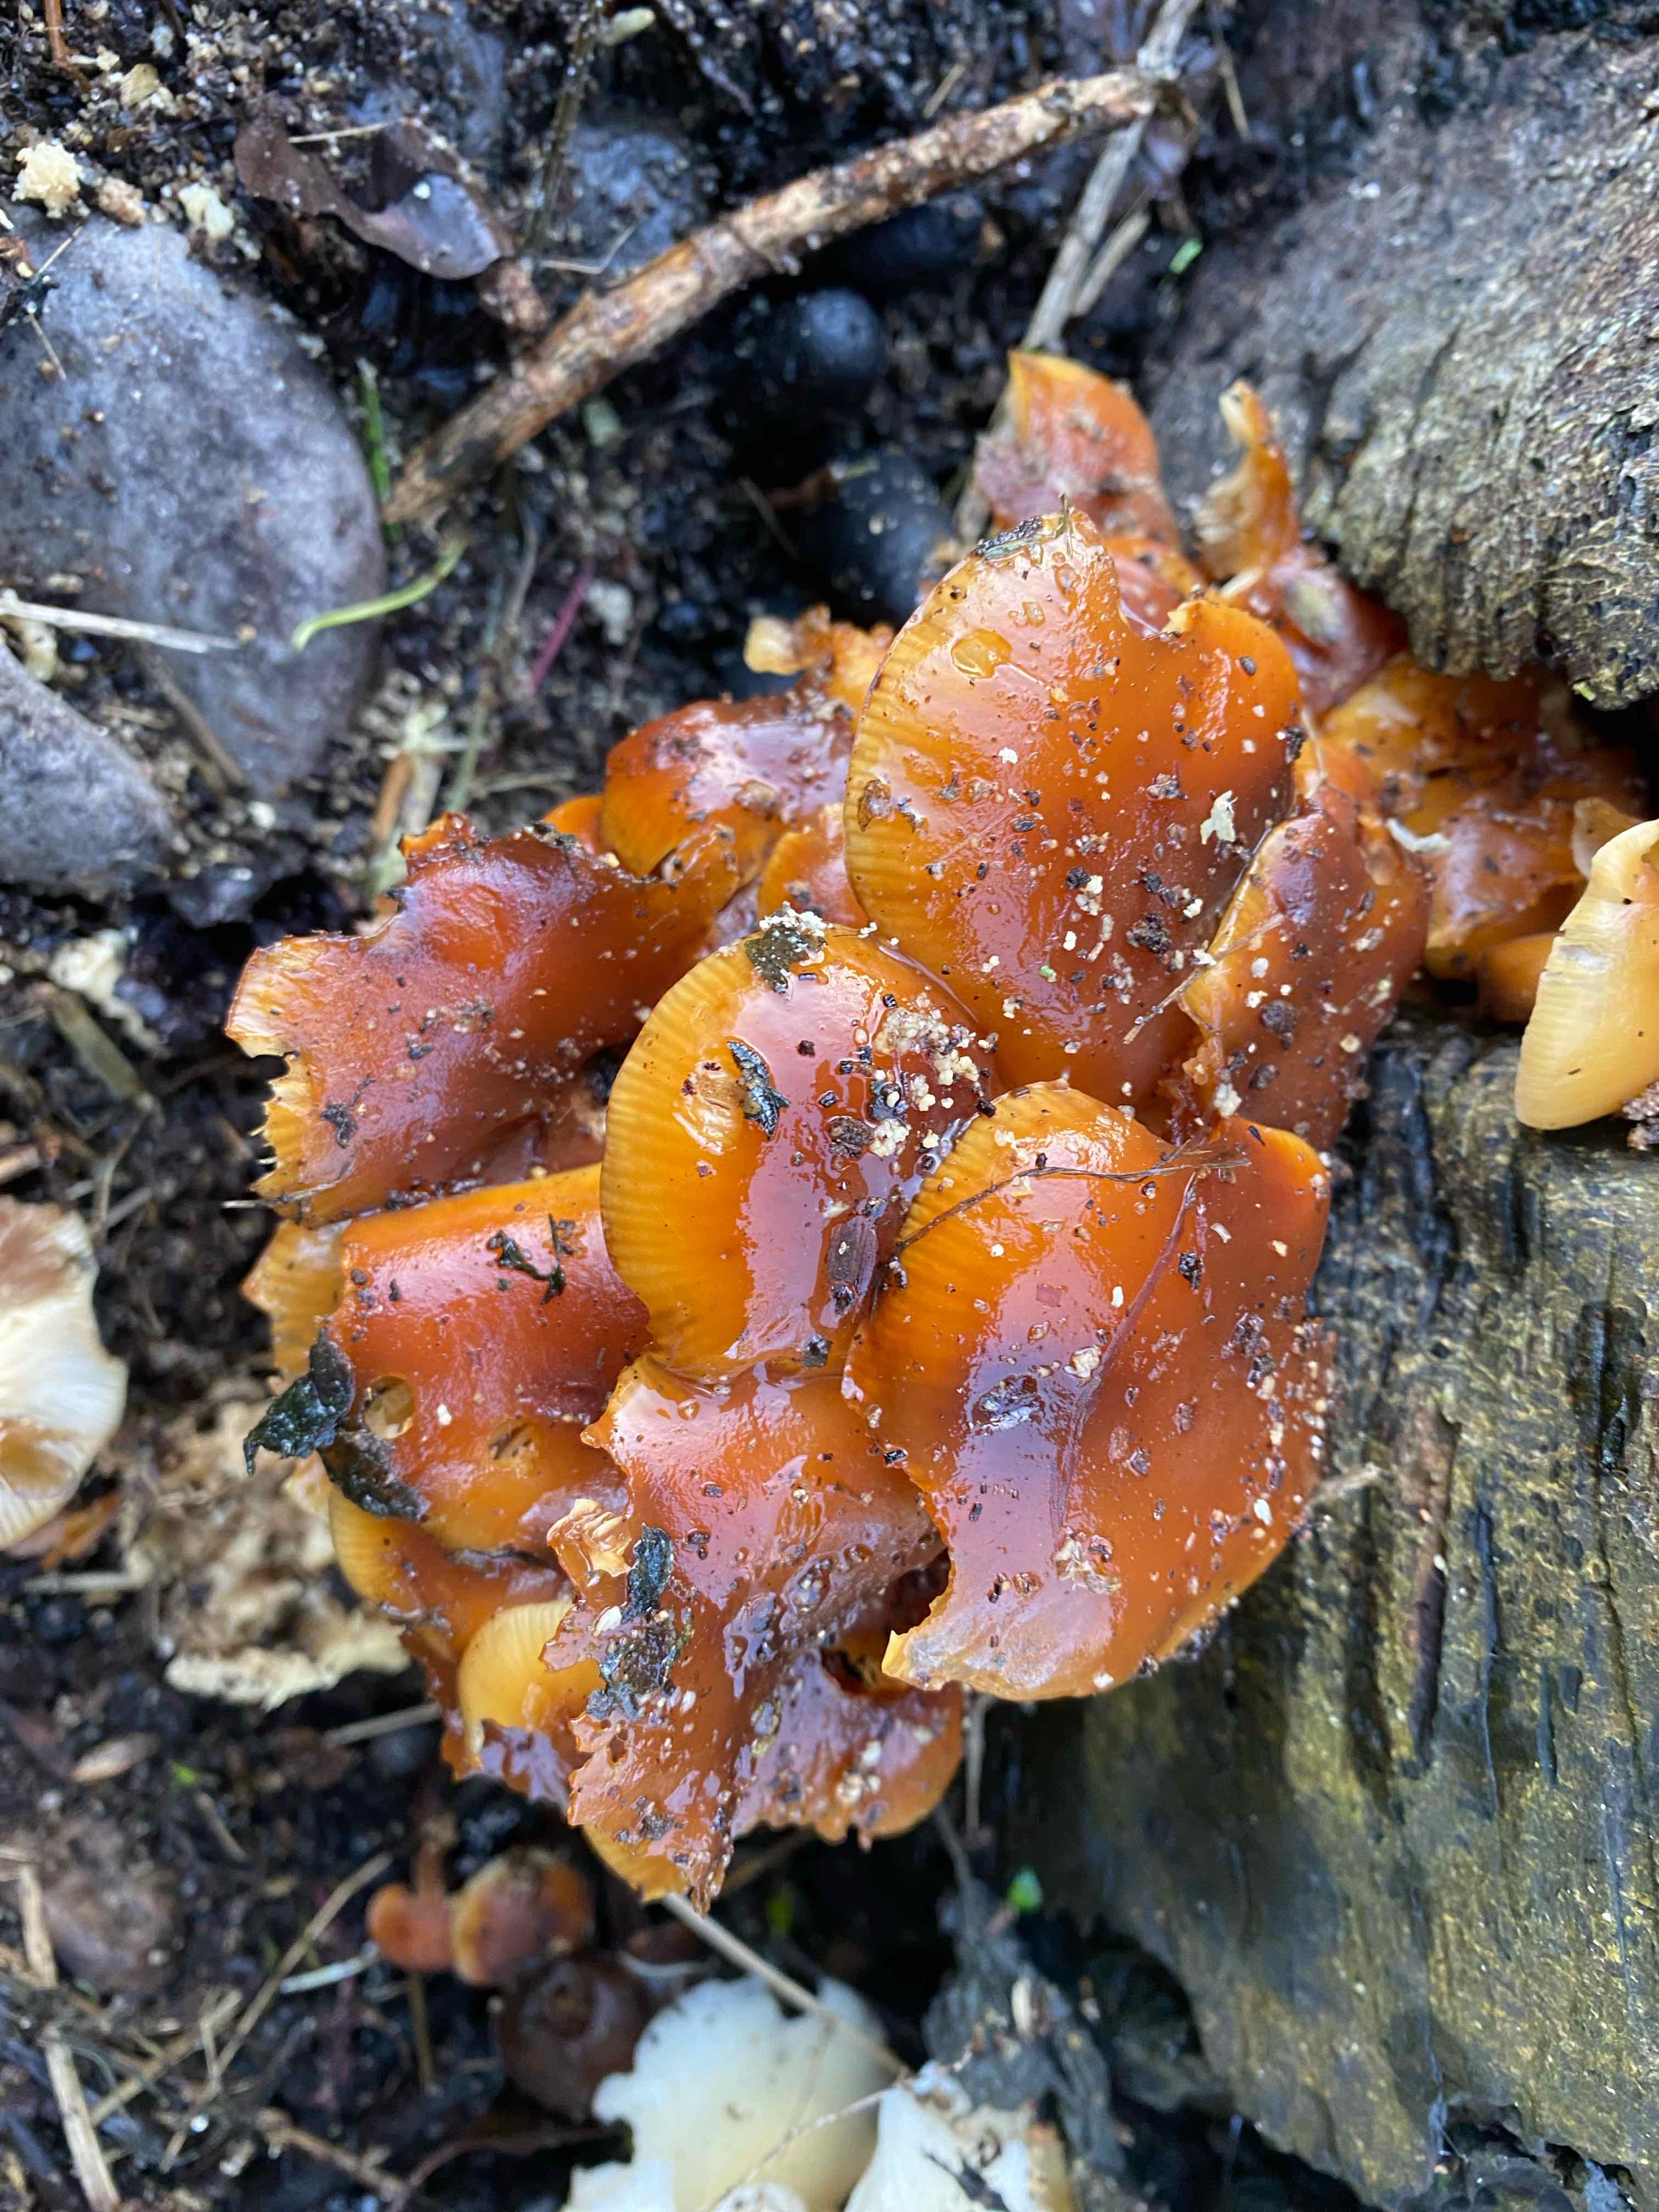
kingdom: Fungi
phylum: Basidiomycota
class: Agaricomycetes
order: Agaricales
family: Physalacriaceae
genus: Flammulina
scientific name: Flammulina velutipes
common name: gul fløjlsfod
